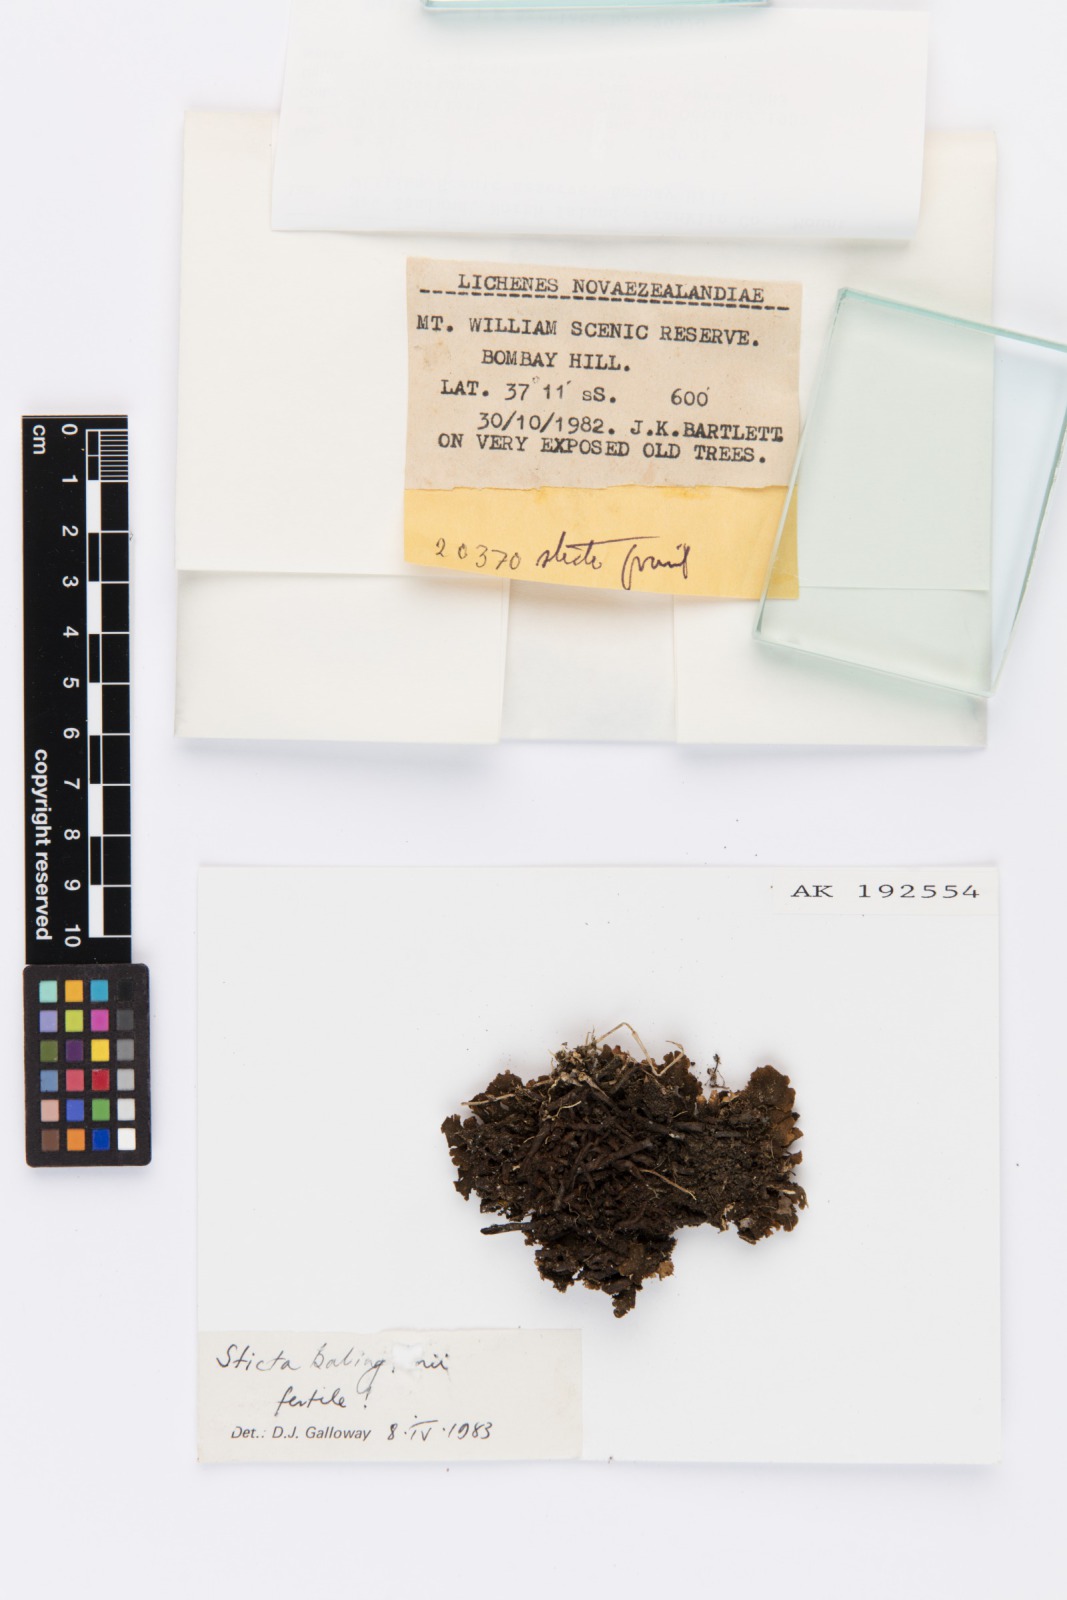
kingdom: Fungi
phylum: Ascomycota
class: Lecanoromycetes
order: Peltigerales
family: Lobariaceae
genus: Sticta
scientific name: Sticta babingtonii
